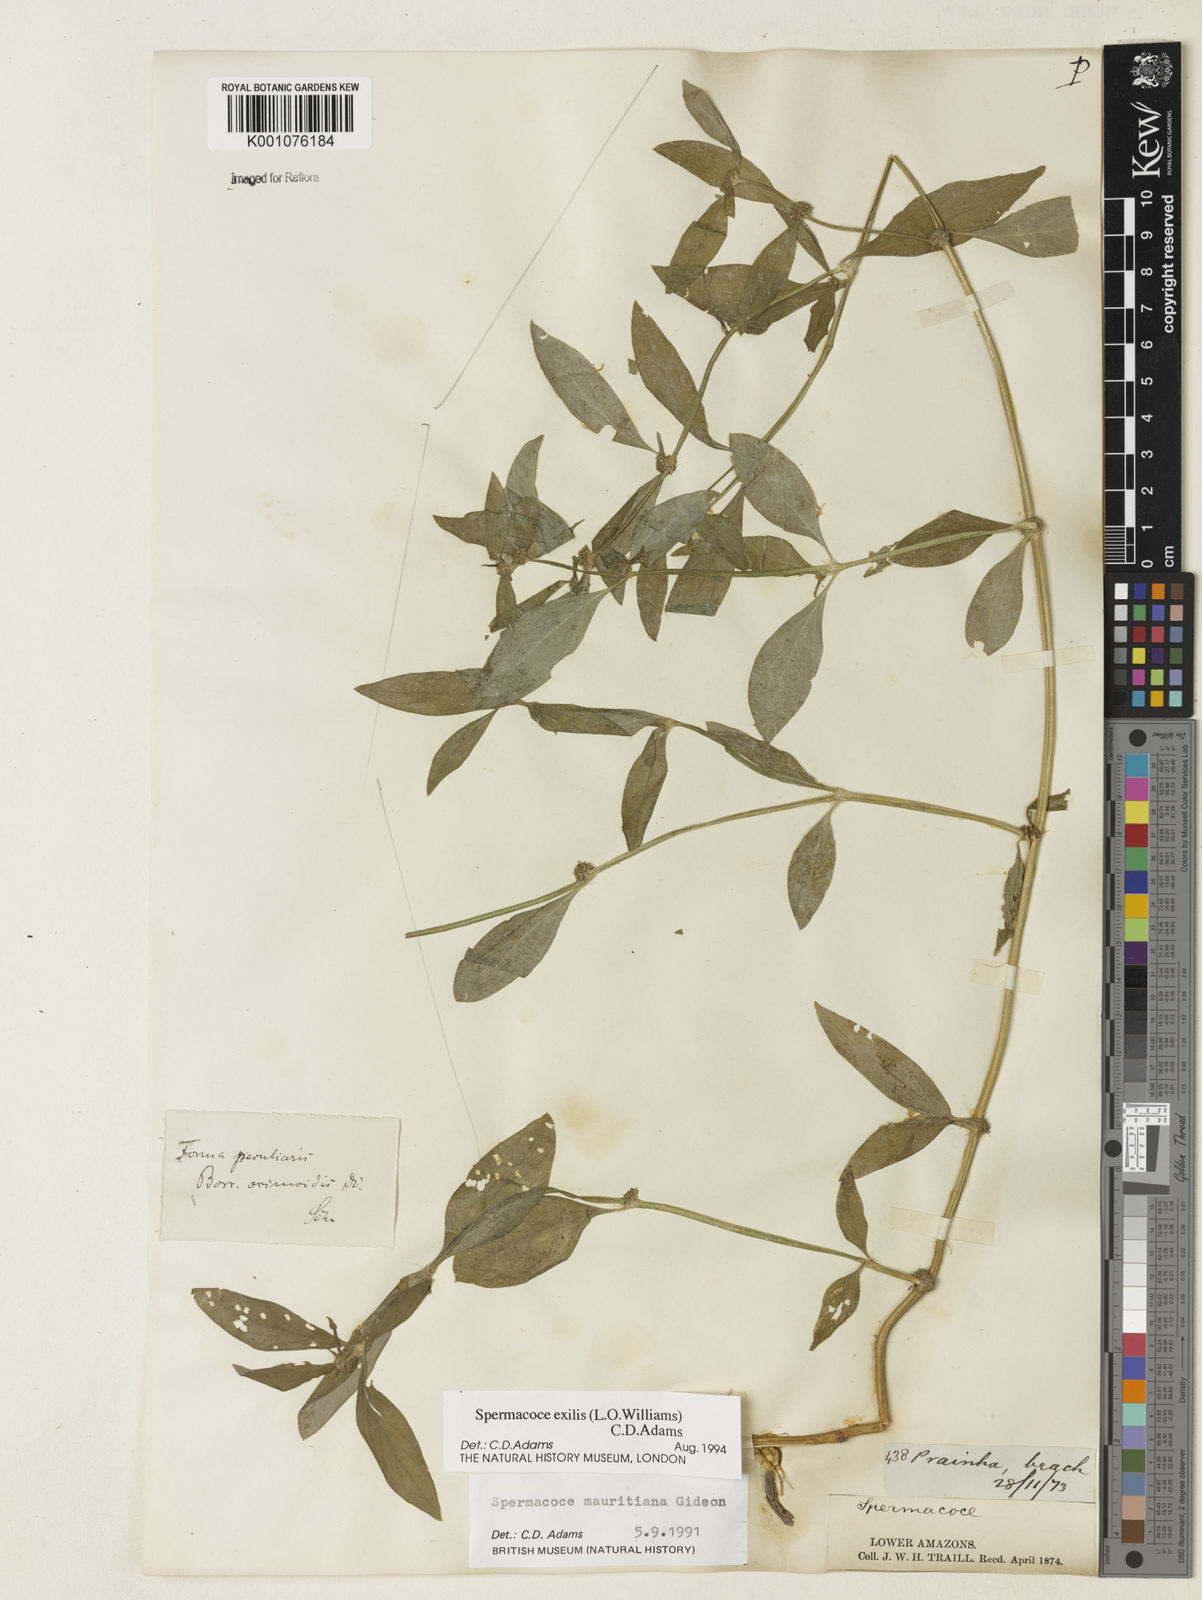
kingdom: Plantae
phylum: Tracheophyta
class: Magnoliopsida
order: Gentianales
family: Rubiaceae
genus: Spermacoce
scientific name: Spermacoce exilis
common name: Pacific false buttonweed
